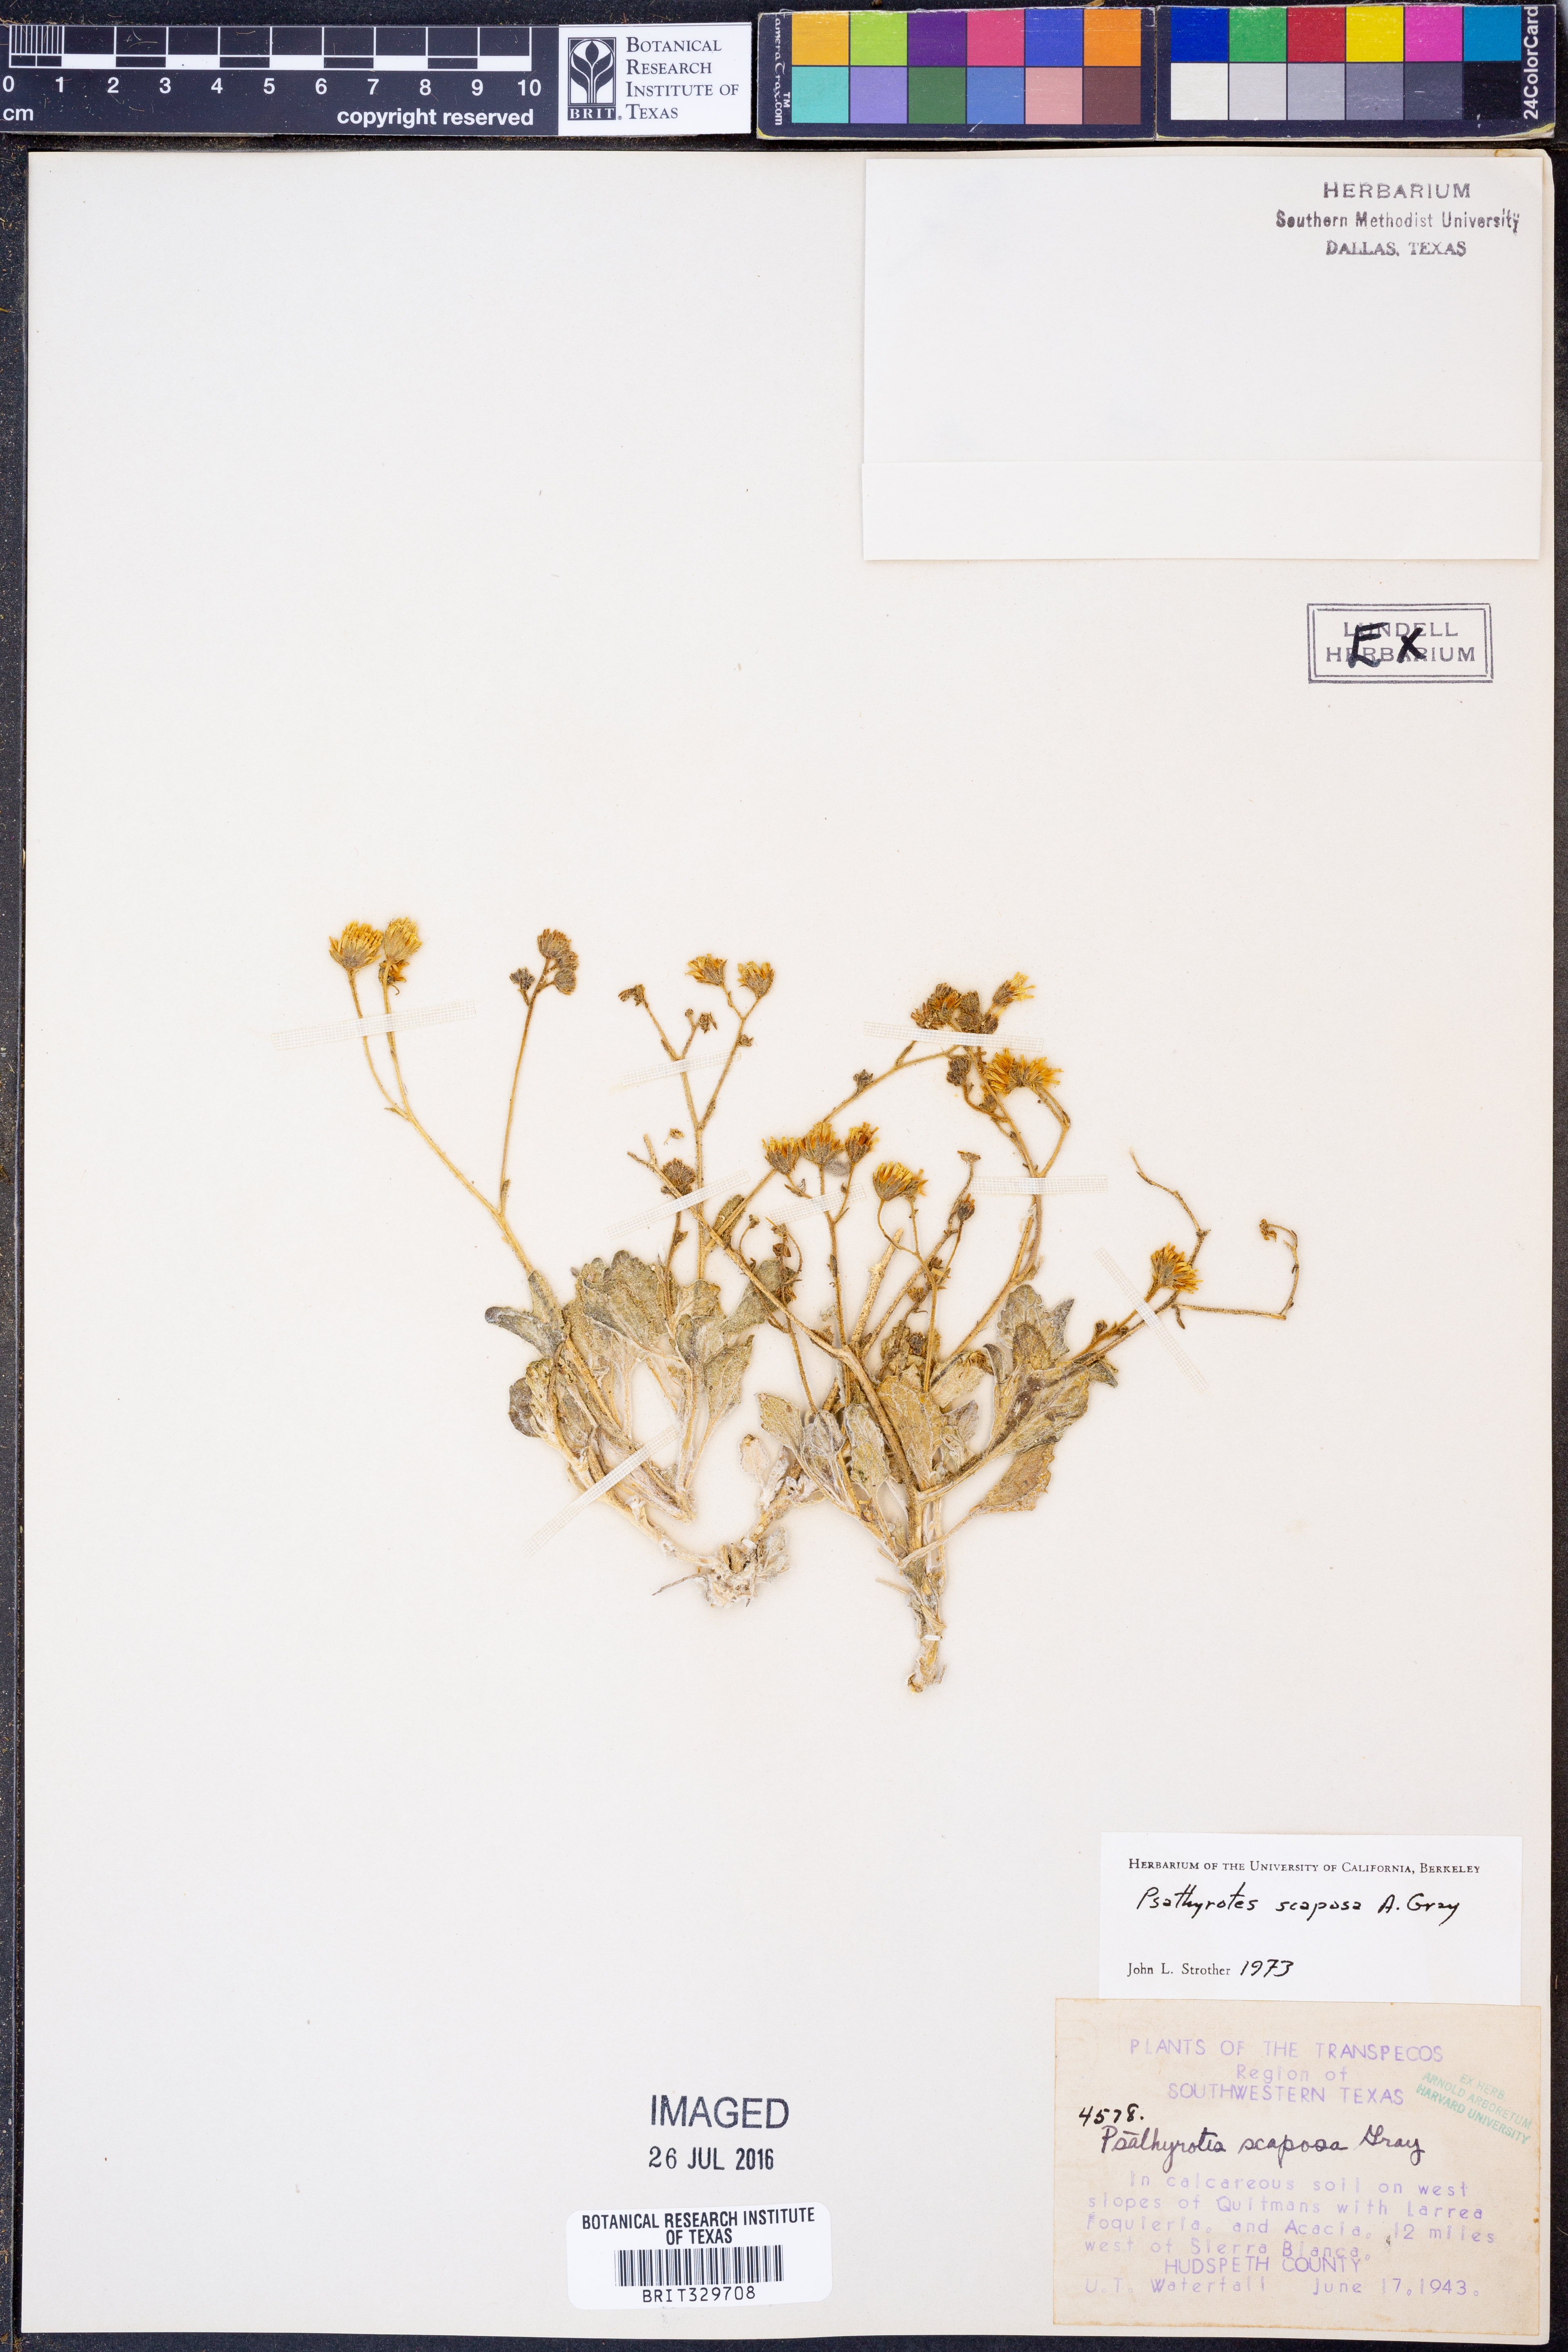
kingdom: Plantae
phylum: Tracheophyta
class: Magnoliopsida
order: Asterales
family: Asteraceae
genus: Psathyrotopsis
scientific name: Psathyrotopsis scaposa
